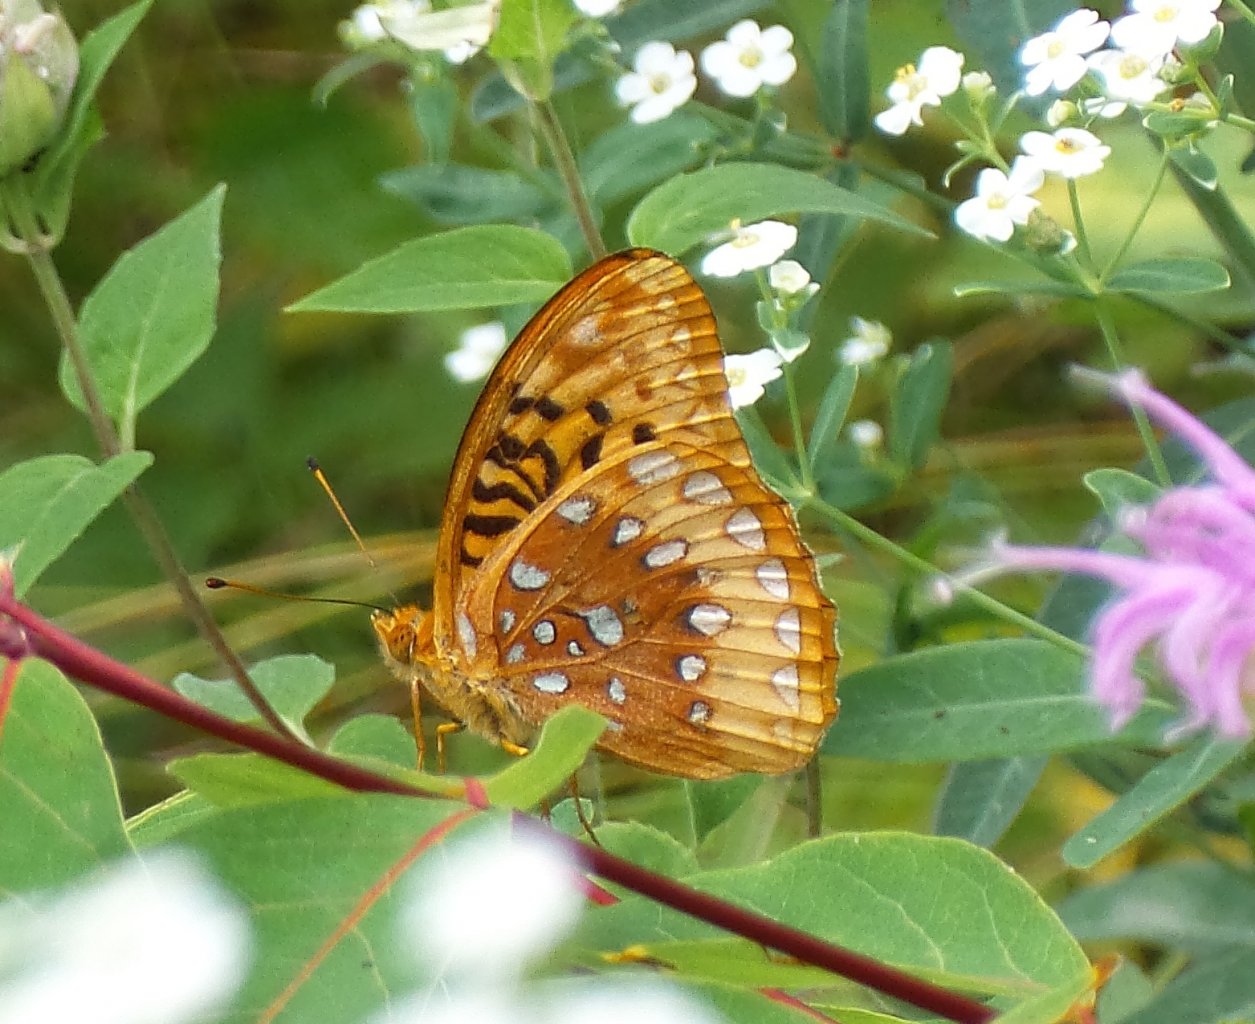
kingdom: Animalia
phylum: Arthropoda
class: Insecta
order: Lepidoptera
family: Nymphalidae
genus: Speyeria
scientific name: Speyeria cybele
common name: Great Spangled Fritillary
